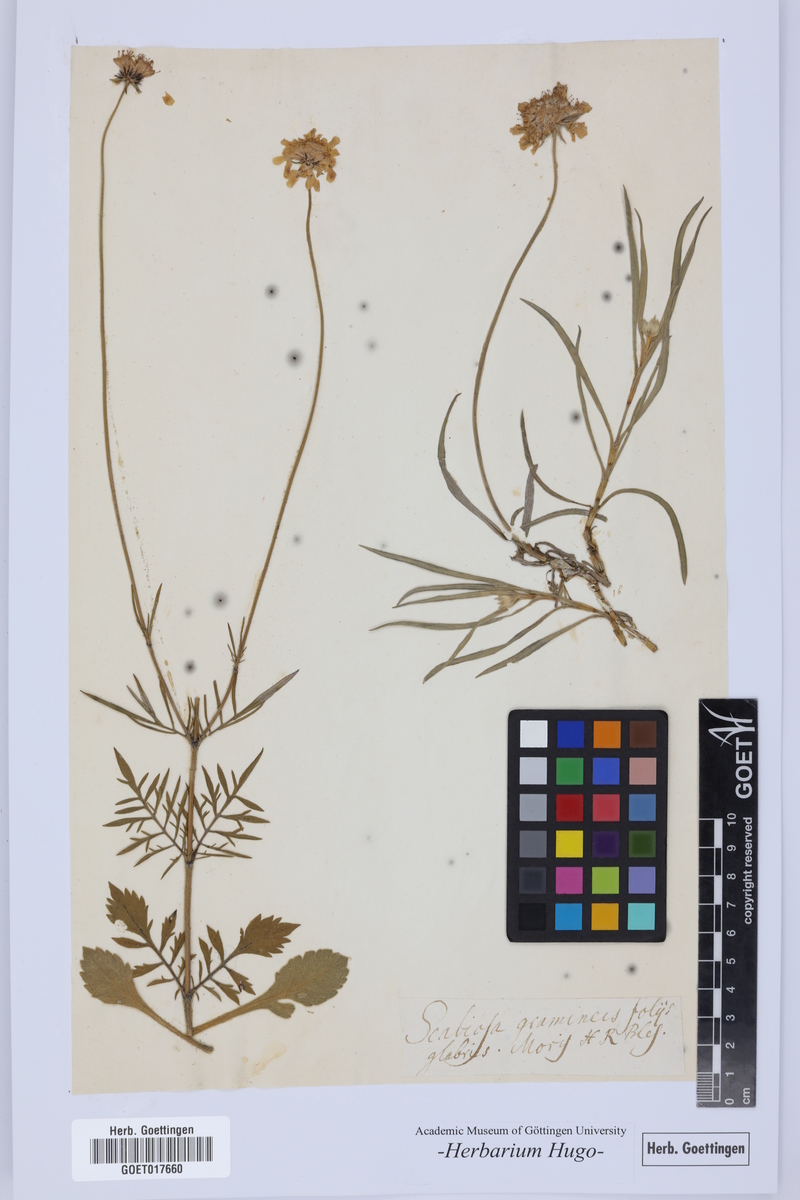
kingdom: Plantae
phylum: Tracheophyta
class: Magnoliopsida
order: Dipsacales
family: Caprifoliaceae
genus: Lomelosia
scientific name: Lomelosia graminifolia
